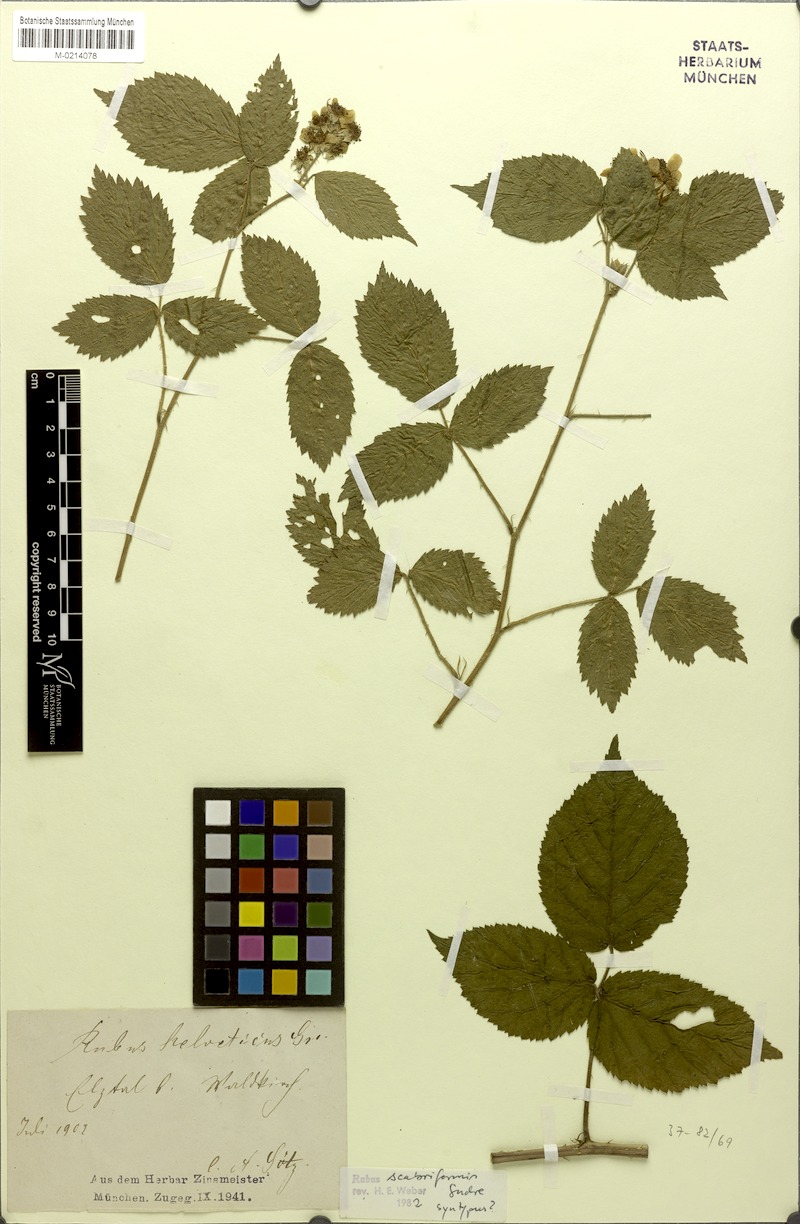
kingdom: Plantae
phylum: Tracheophyta
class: Magnoliopsida
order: Rosales
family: Rosaceae
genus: Rubus
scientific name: Rubus condensatus
